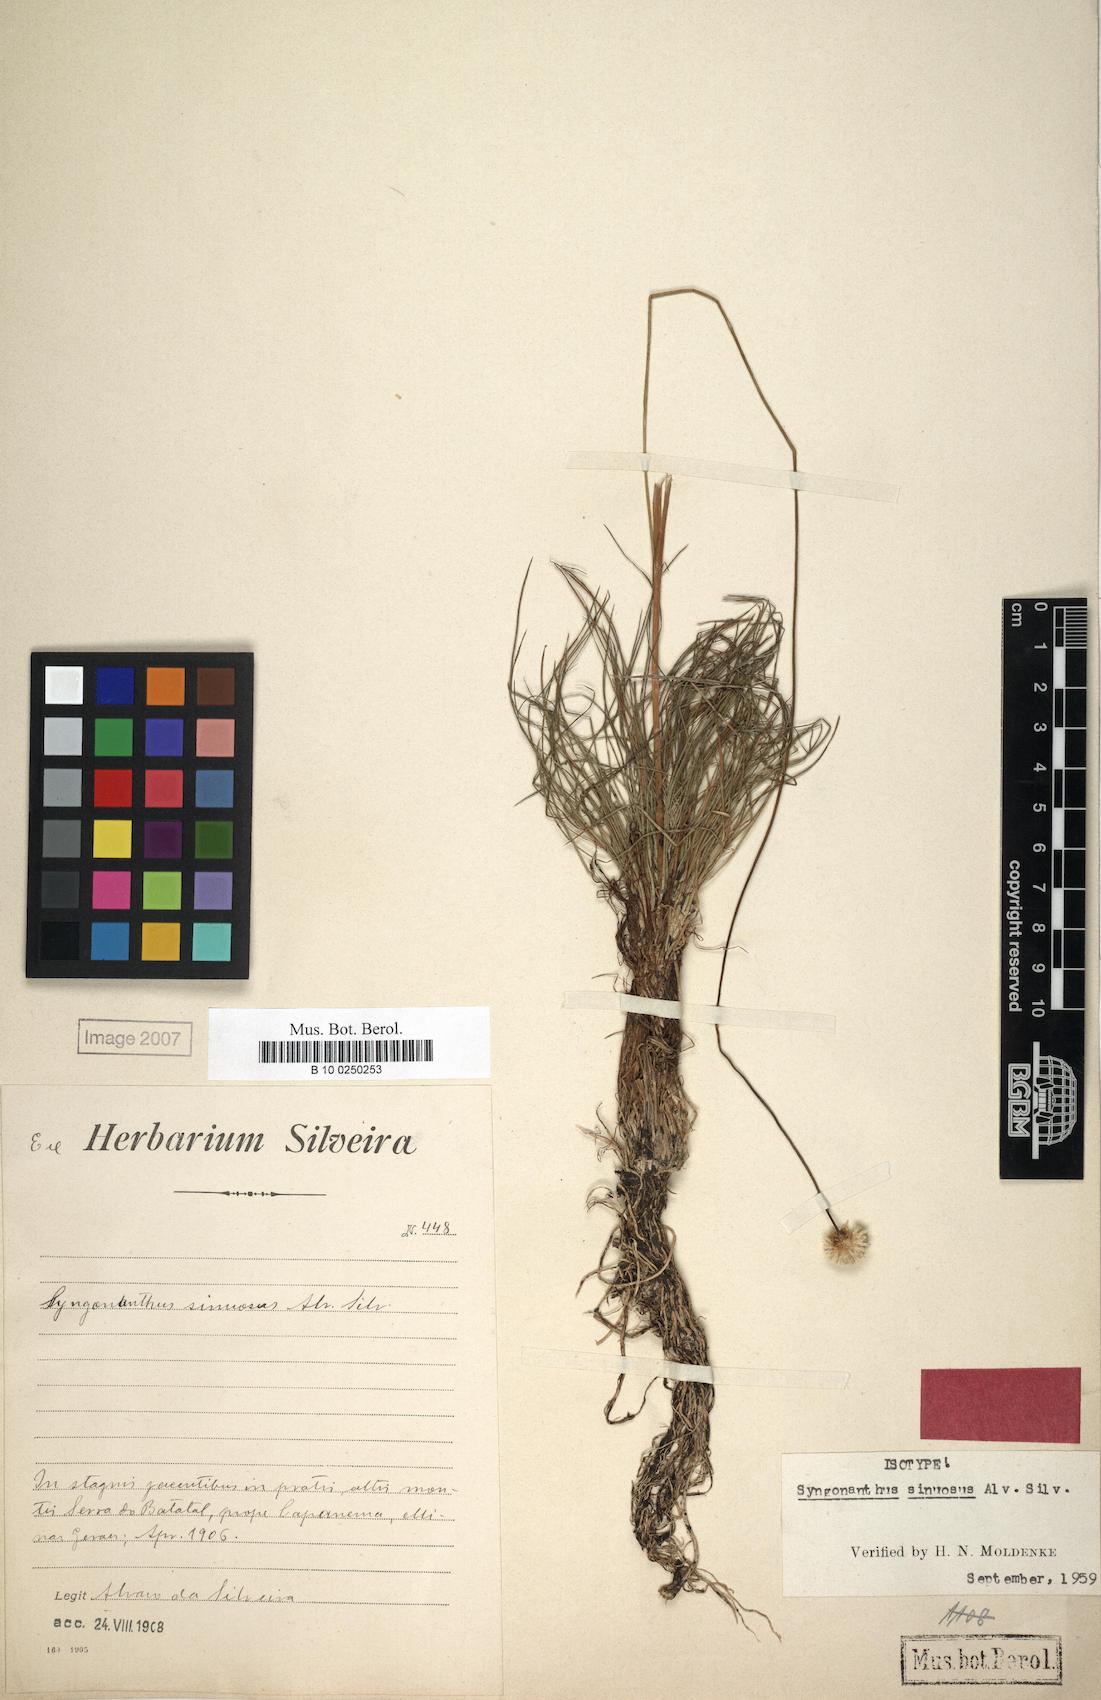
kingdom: Plantae
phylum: Tracheophyta
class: Liliopsida
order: Poales
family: Eriocaulaceae
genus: Syngonanthus
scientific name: Syngonanthus sinuosus
